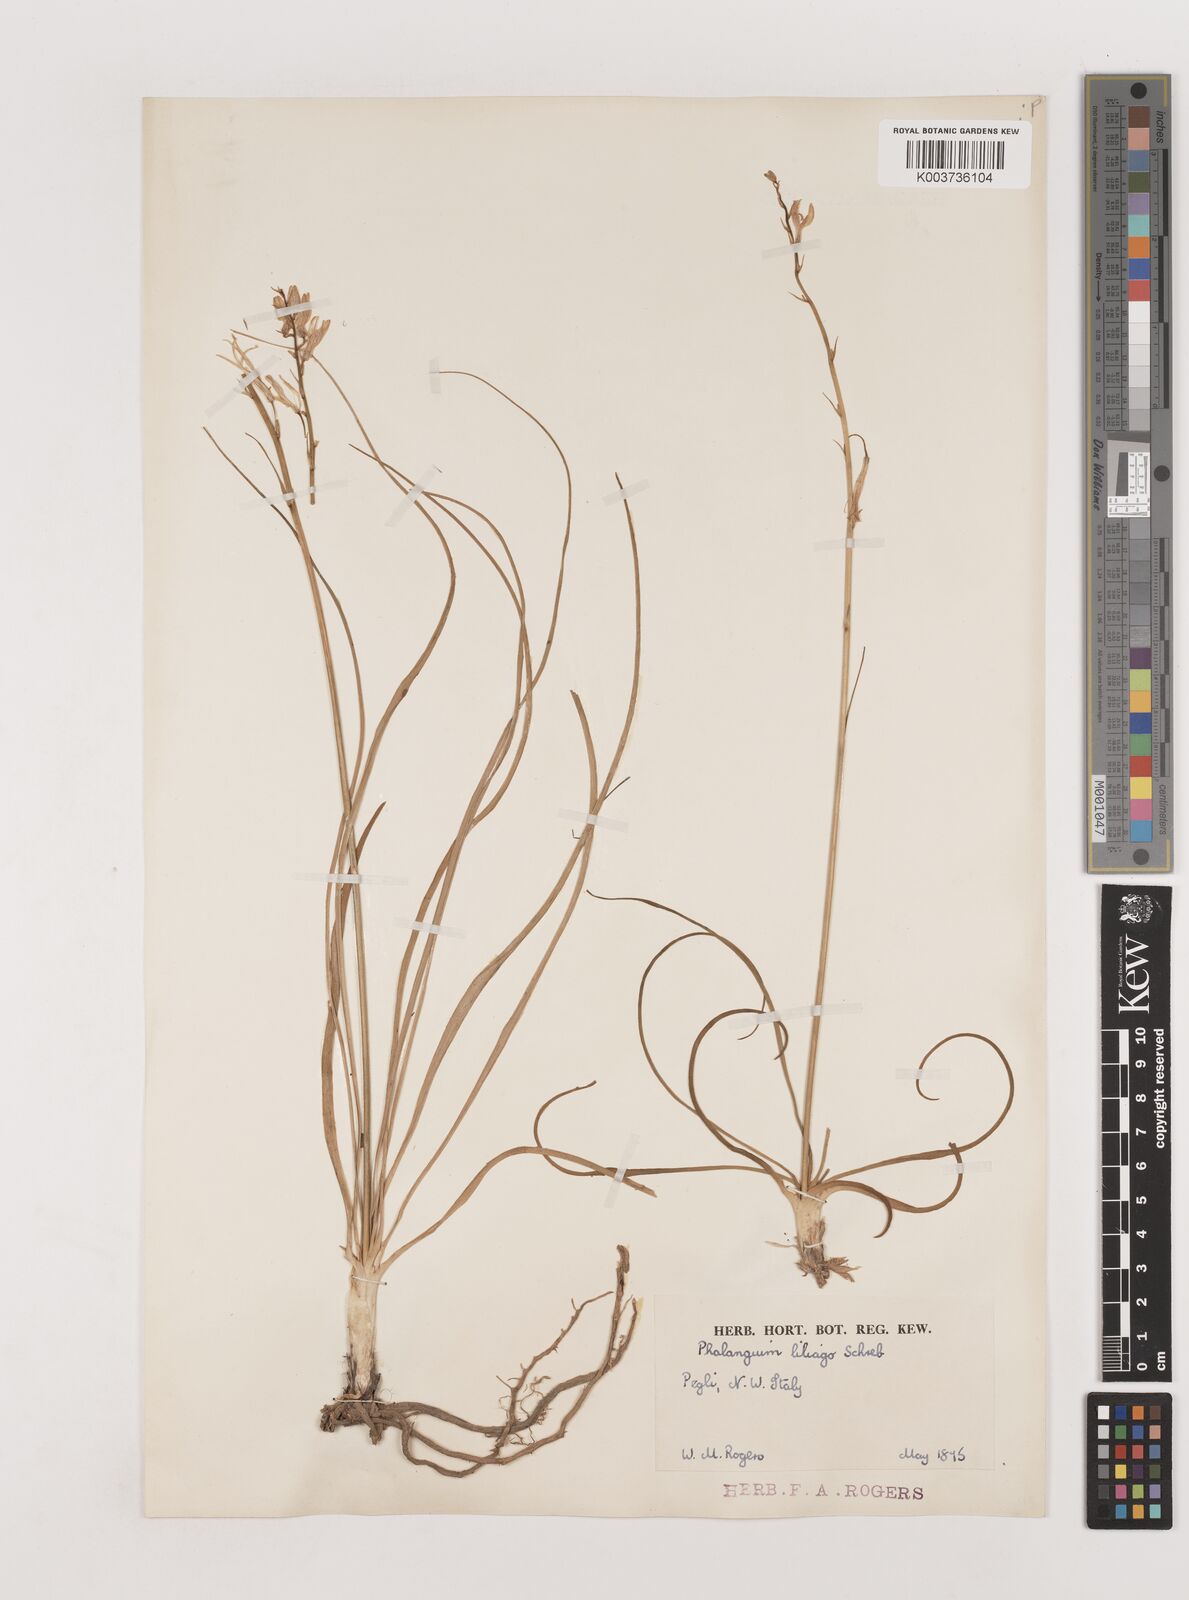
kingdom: Plantae
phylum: Tracheophyta
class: Liliopsida
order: Asparagales
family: Asparagaceae
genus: Anthericum
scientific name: Anthericum liliago
